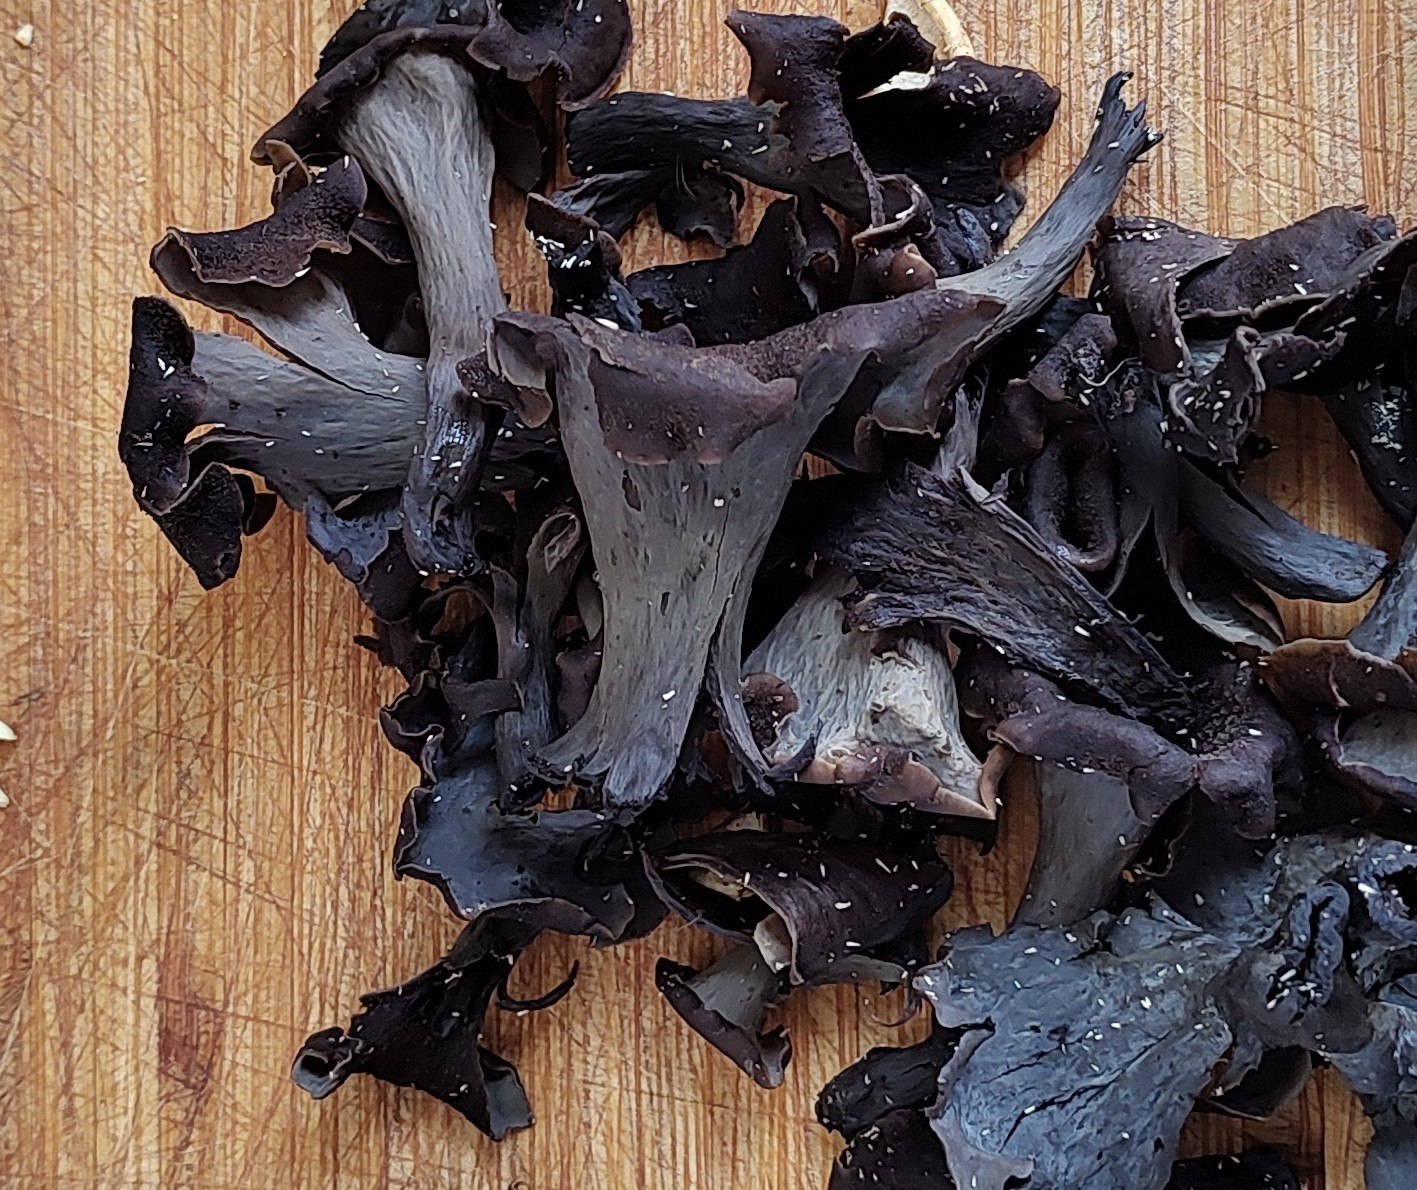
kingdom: Fungi
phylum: Basidiomycota
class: Agaricomycetes
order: Cantharellales
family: Hydnaceae
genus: Craterellus
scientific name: Craterellus cornucopioides
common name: trompetsvamp
